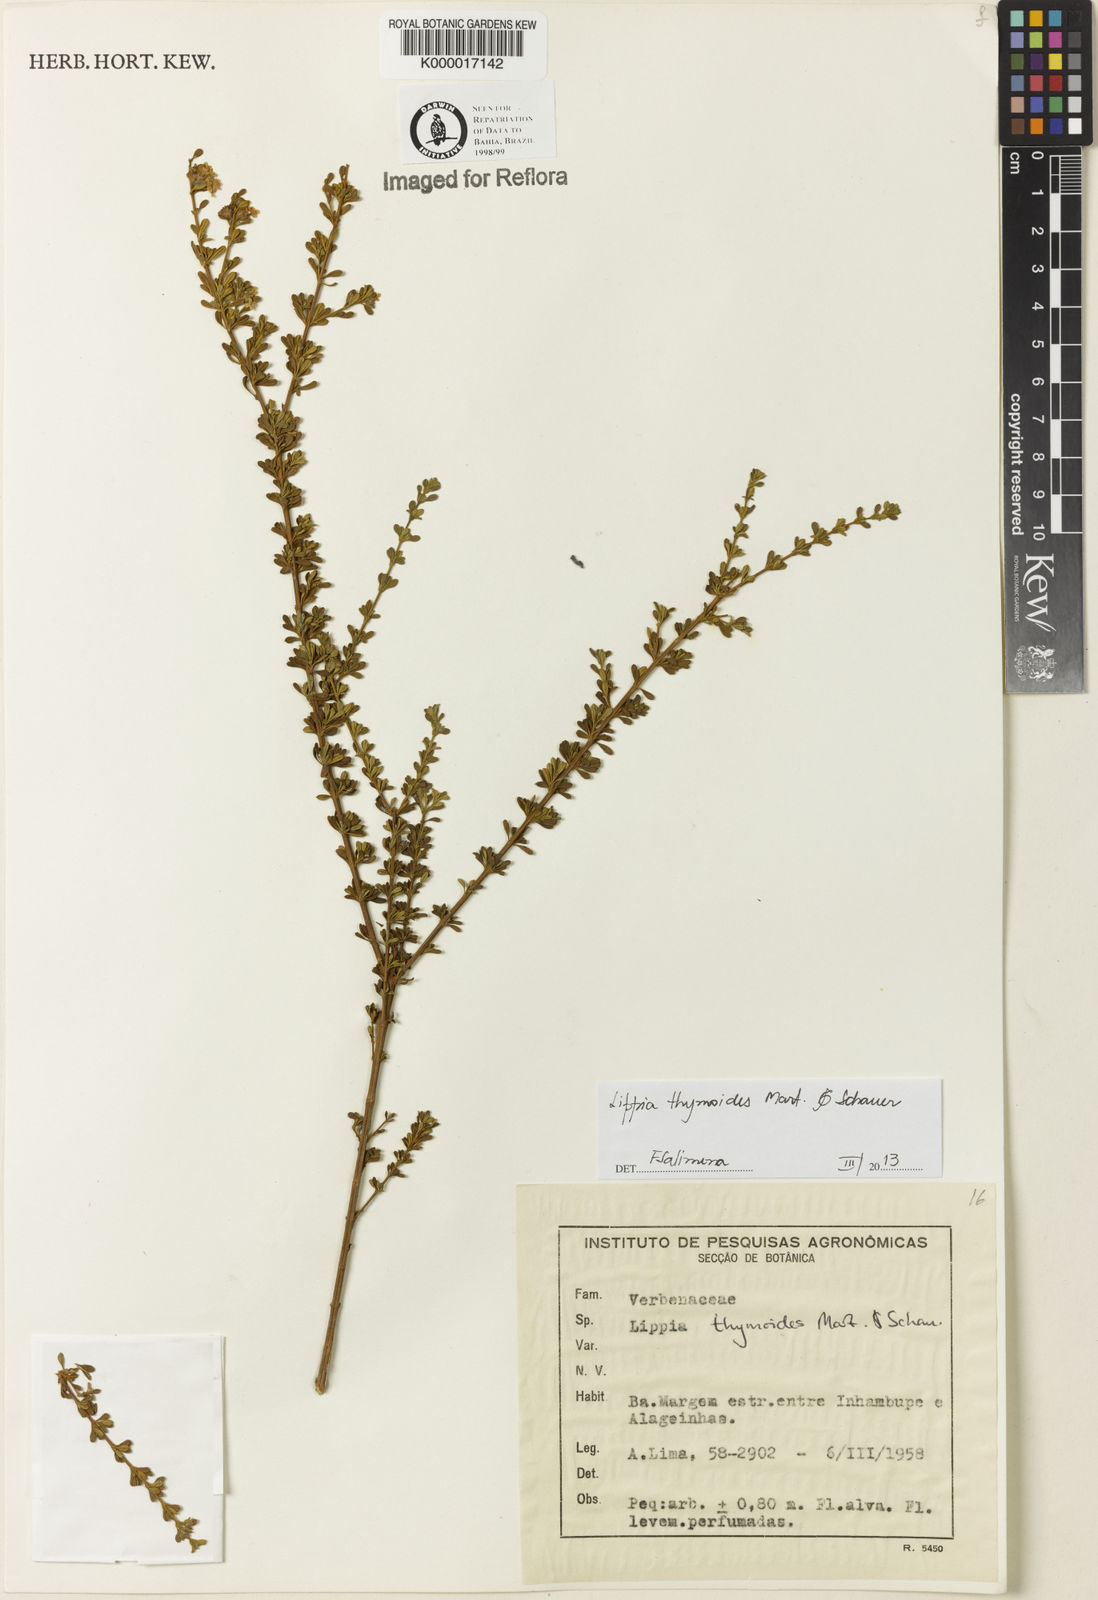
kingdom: Plantae
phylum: Tracheophyta
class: Magnoliopsida
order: Lamiales
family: Verbenaceae
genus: Lippia
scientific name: Lippia thymoides
